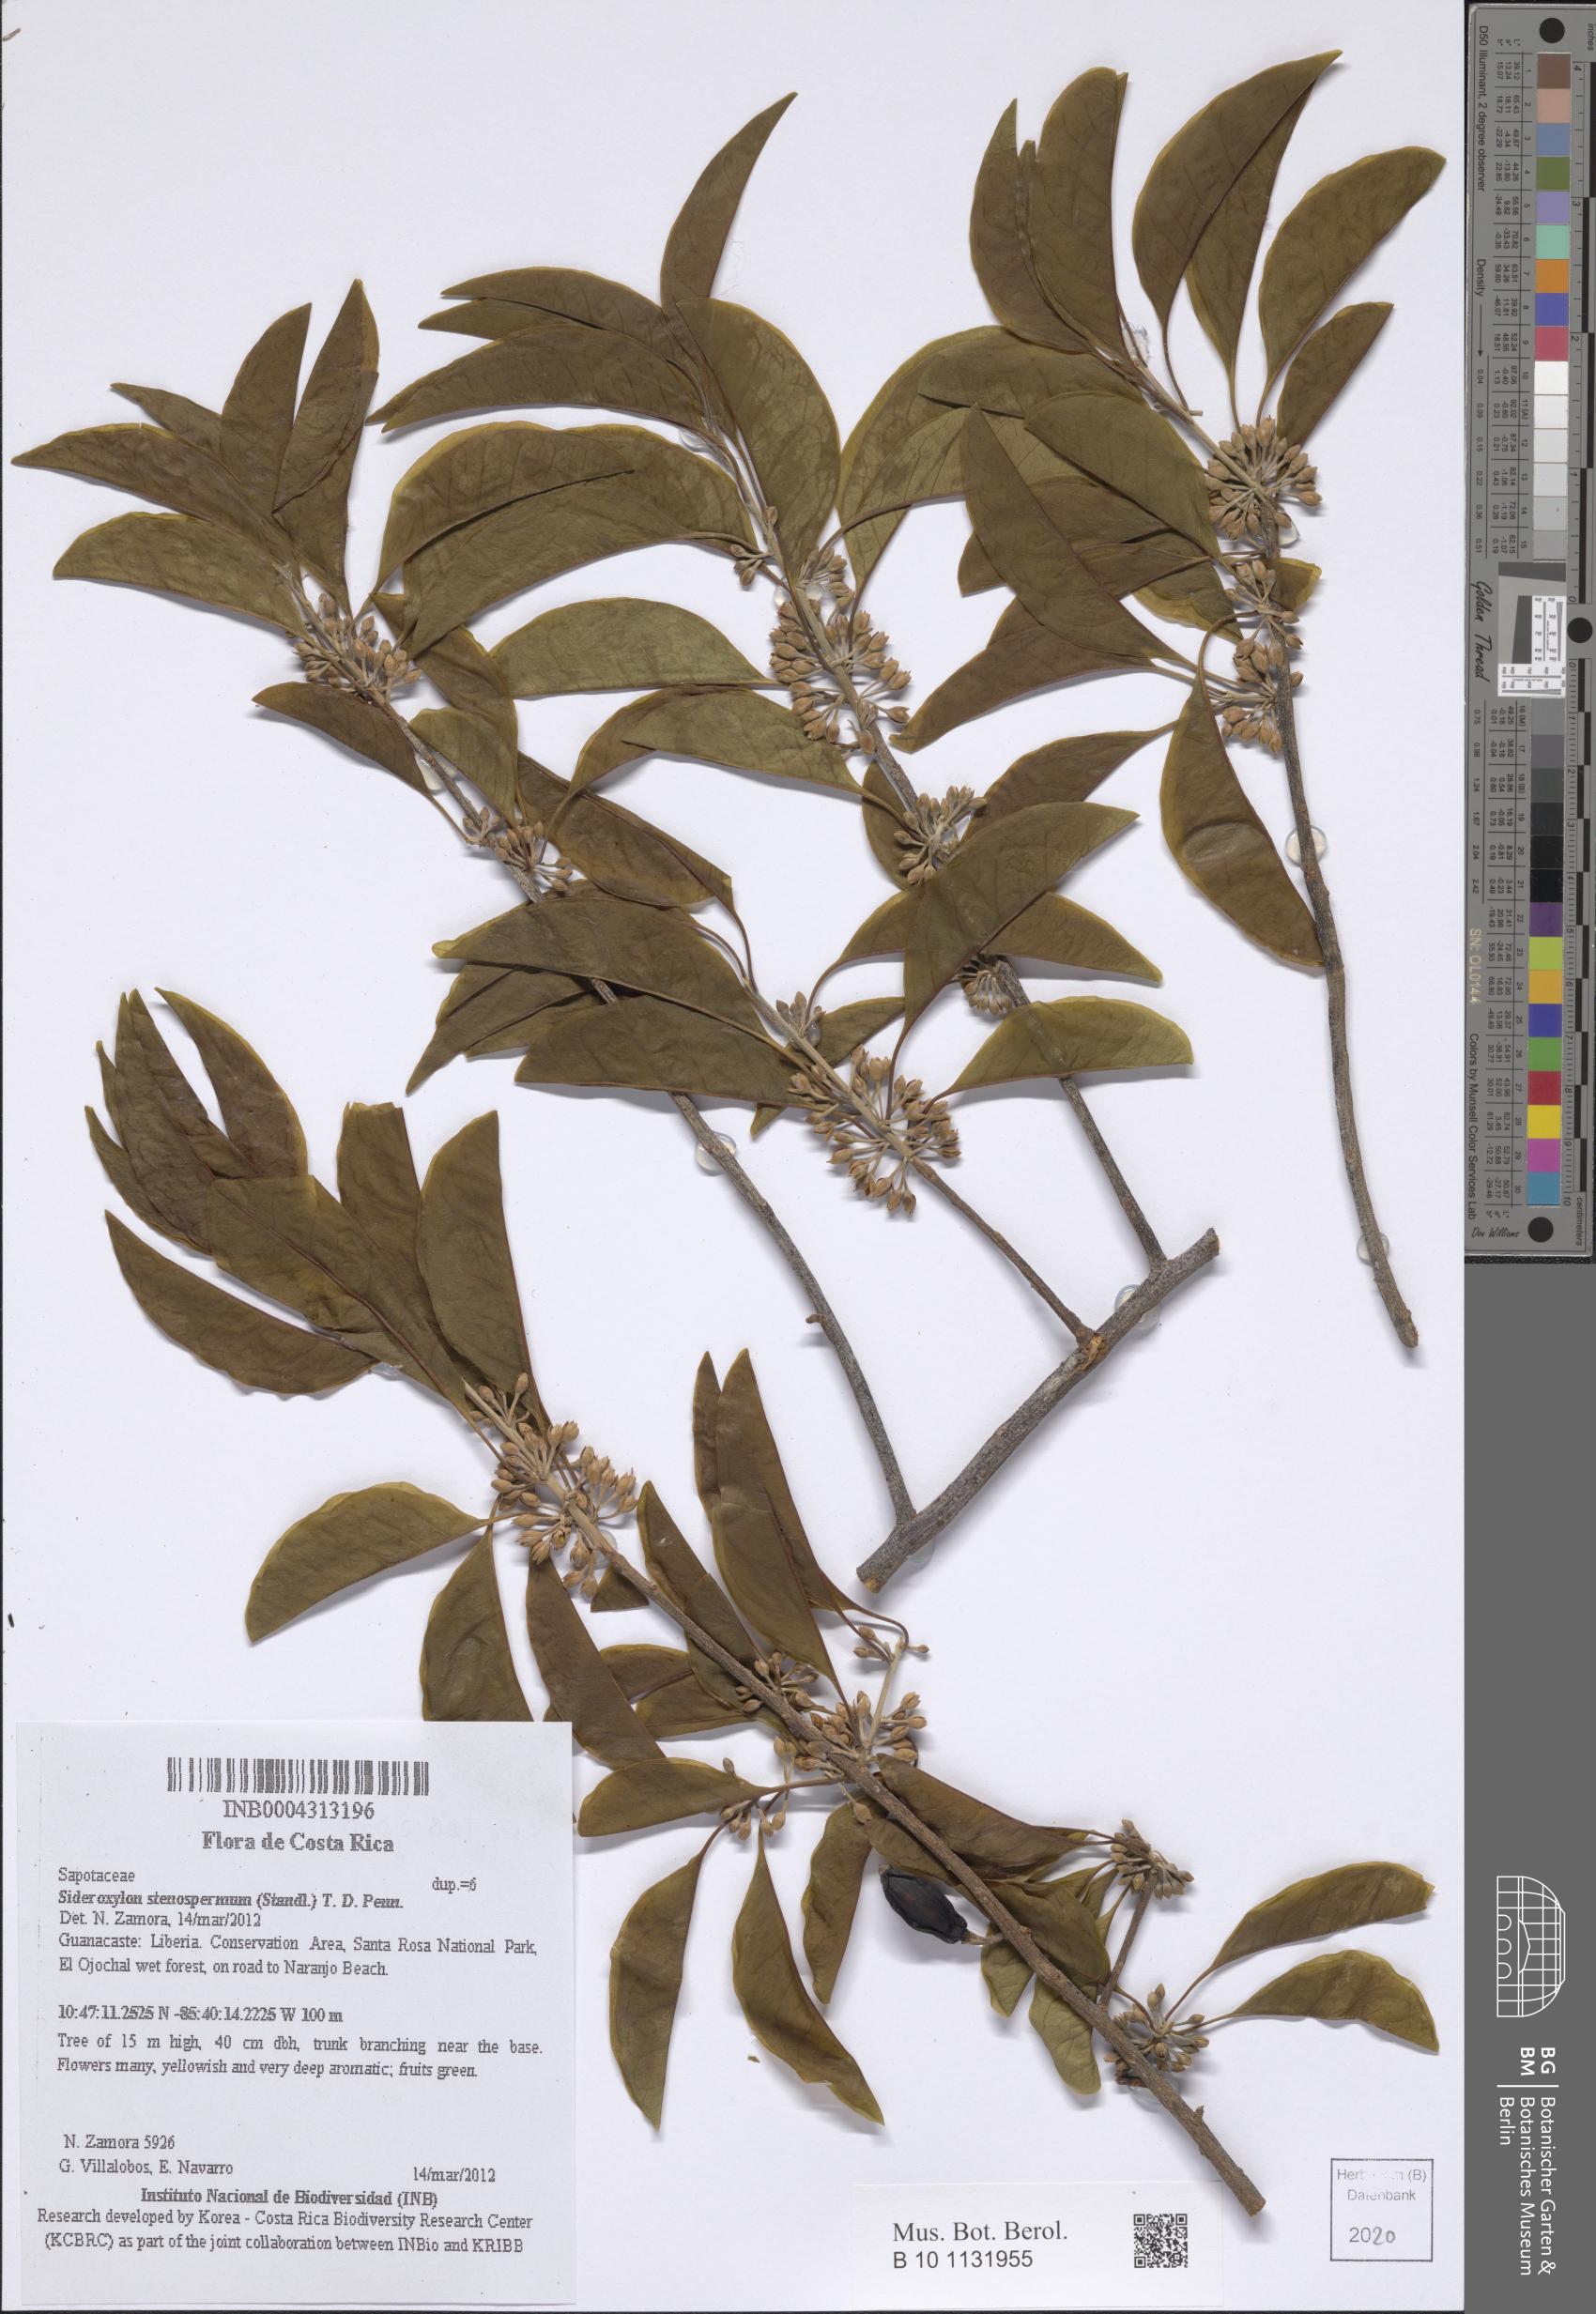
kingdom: Plantae
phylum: Tracheophyta
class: Magnoliopsida
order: Ericales
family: Sapotaceae
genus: Sideroxylon
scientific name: Sideroxylon stenospermum
